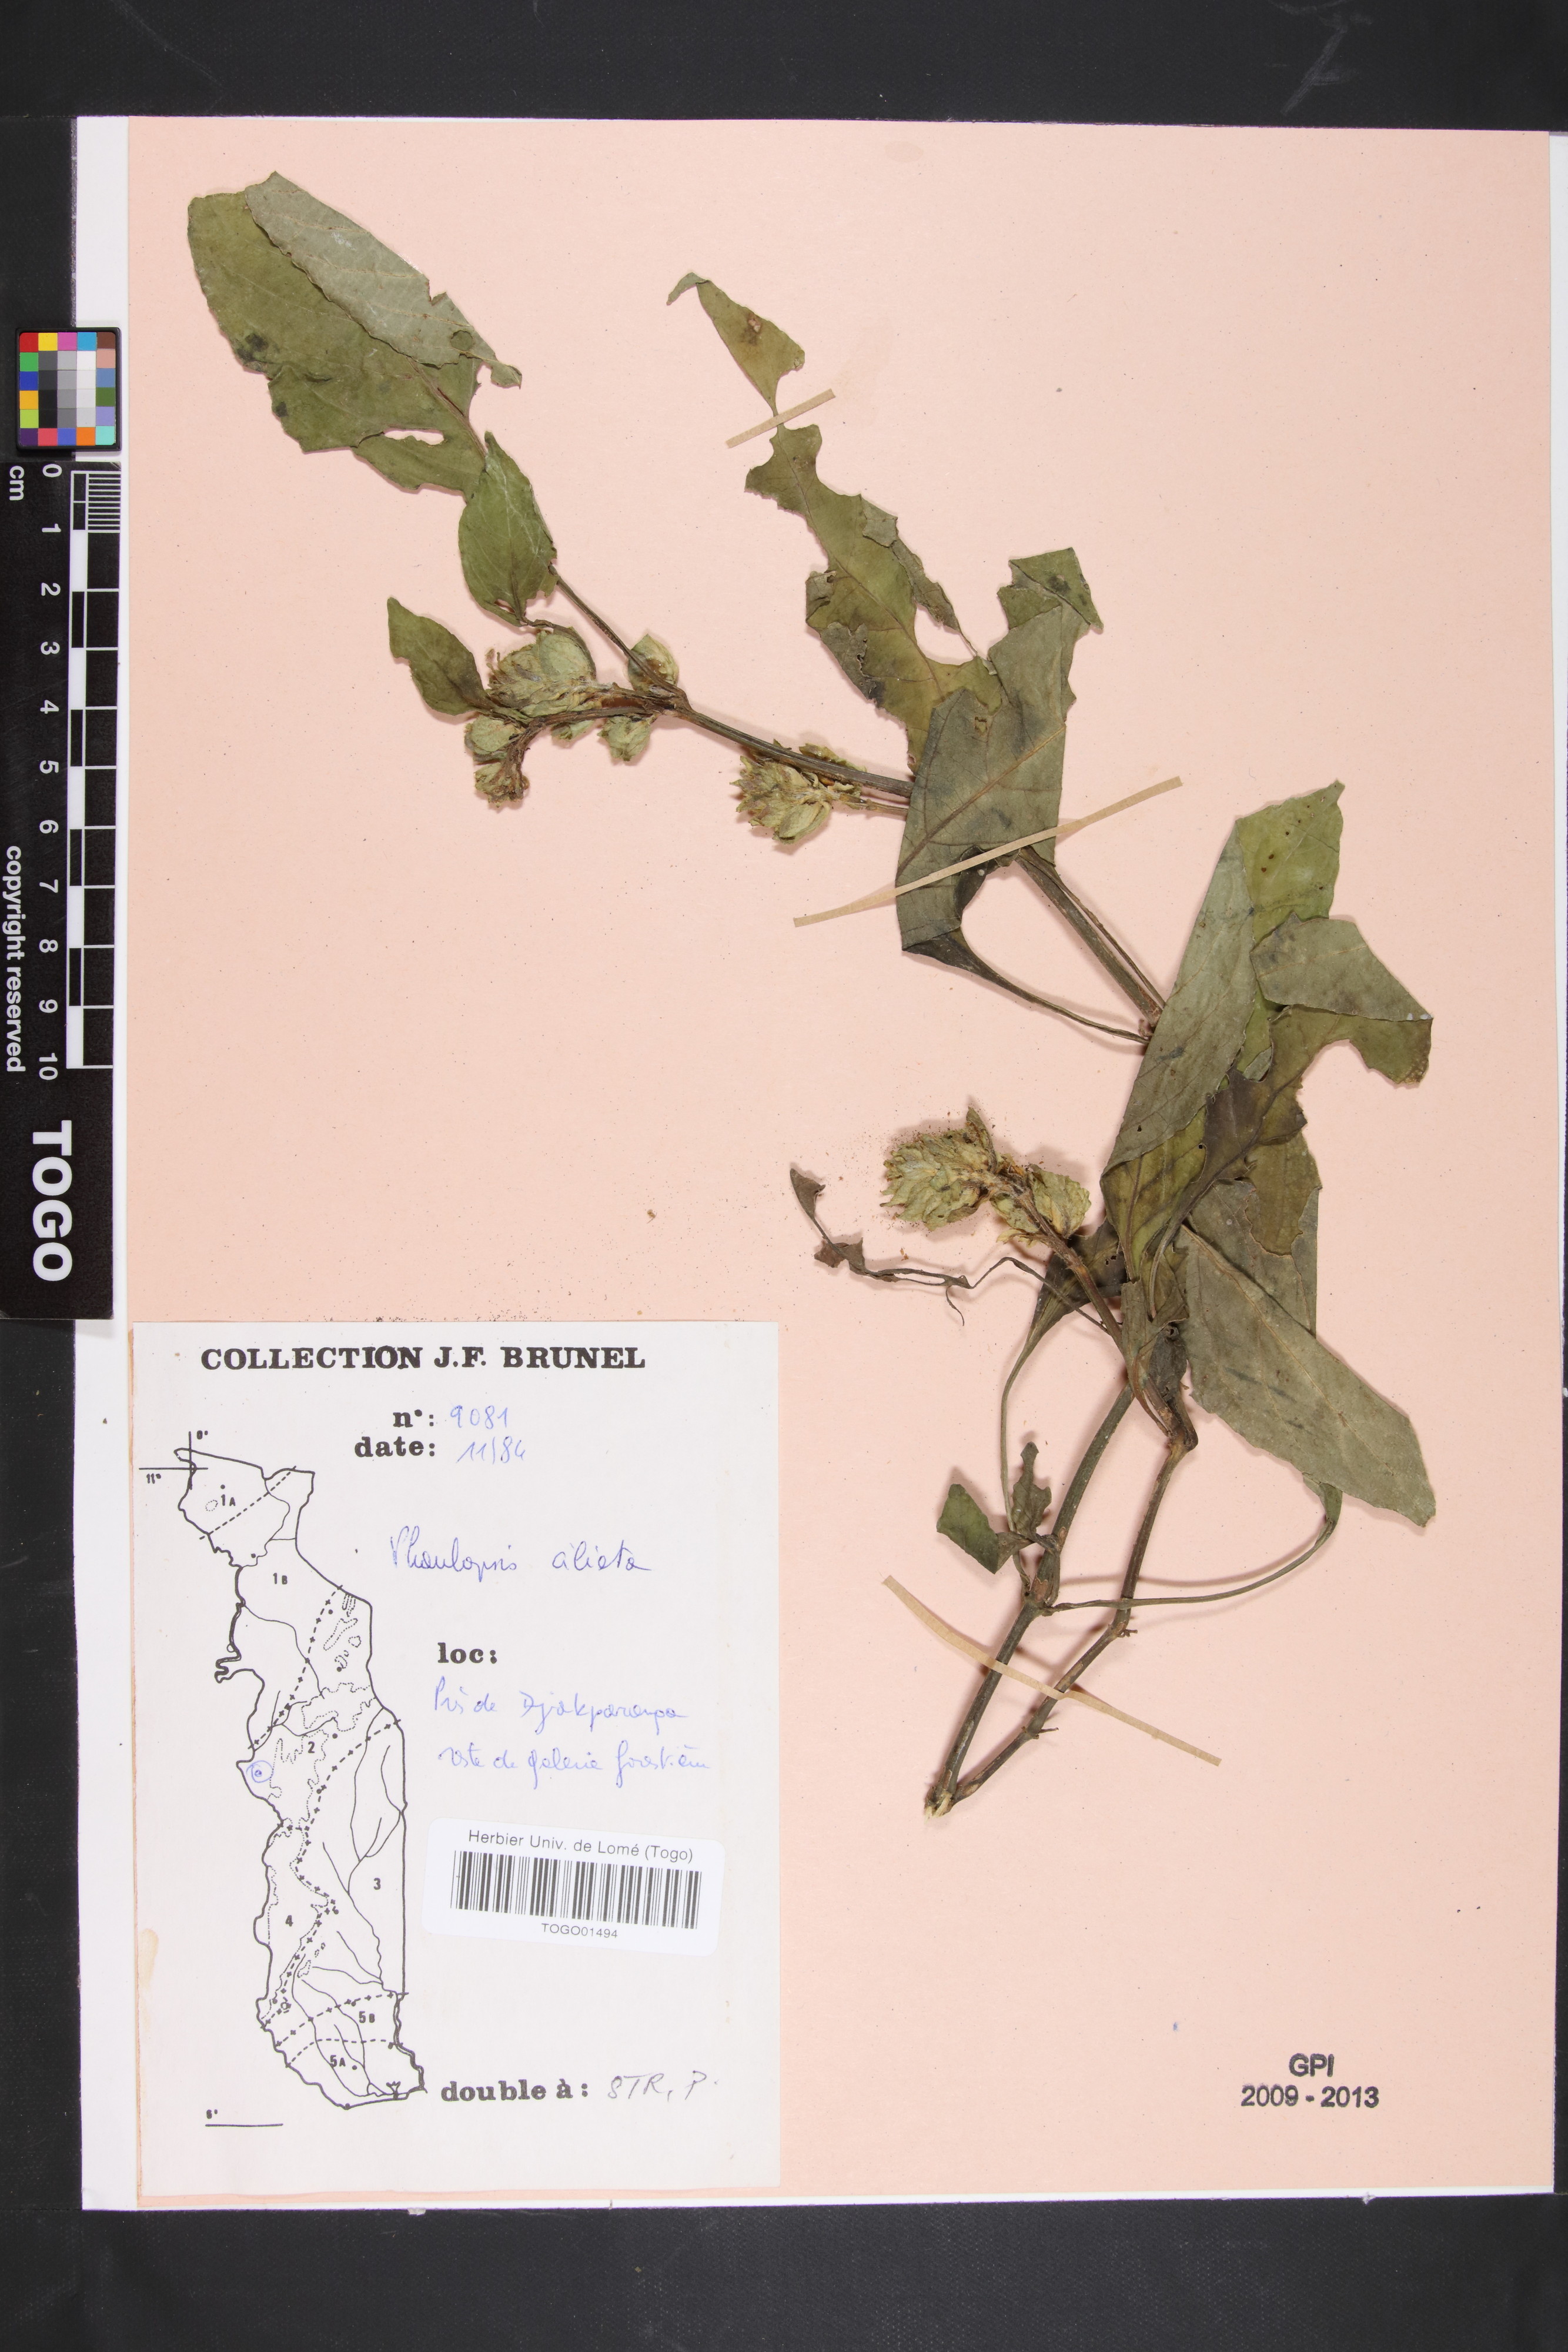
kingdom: Plantae
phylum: Tracheophyta
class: Magnoliopsida
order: Lamiales
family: Acanthaceae
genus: Phaulopsis
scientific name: Phaulopsis ciliata
